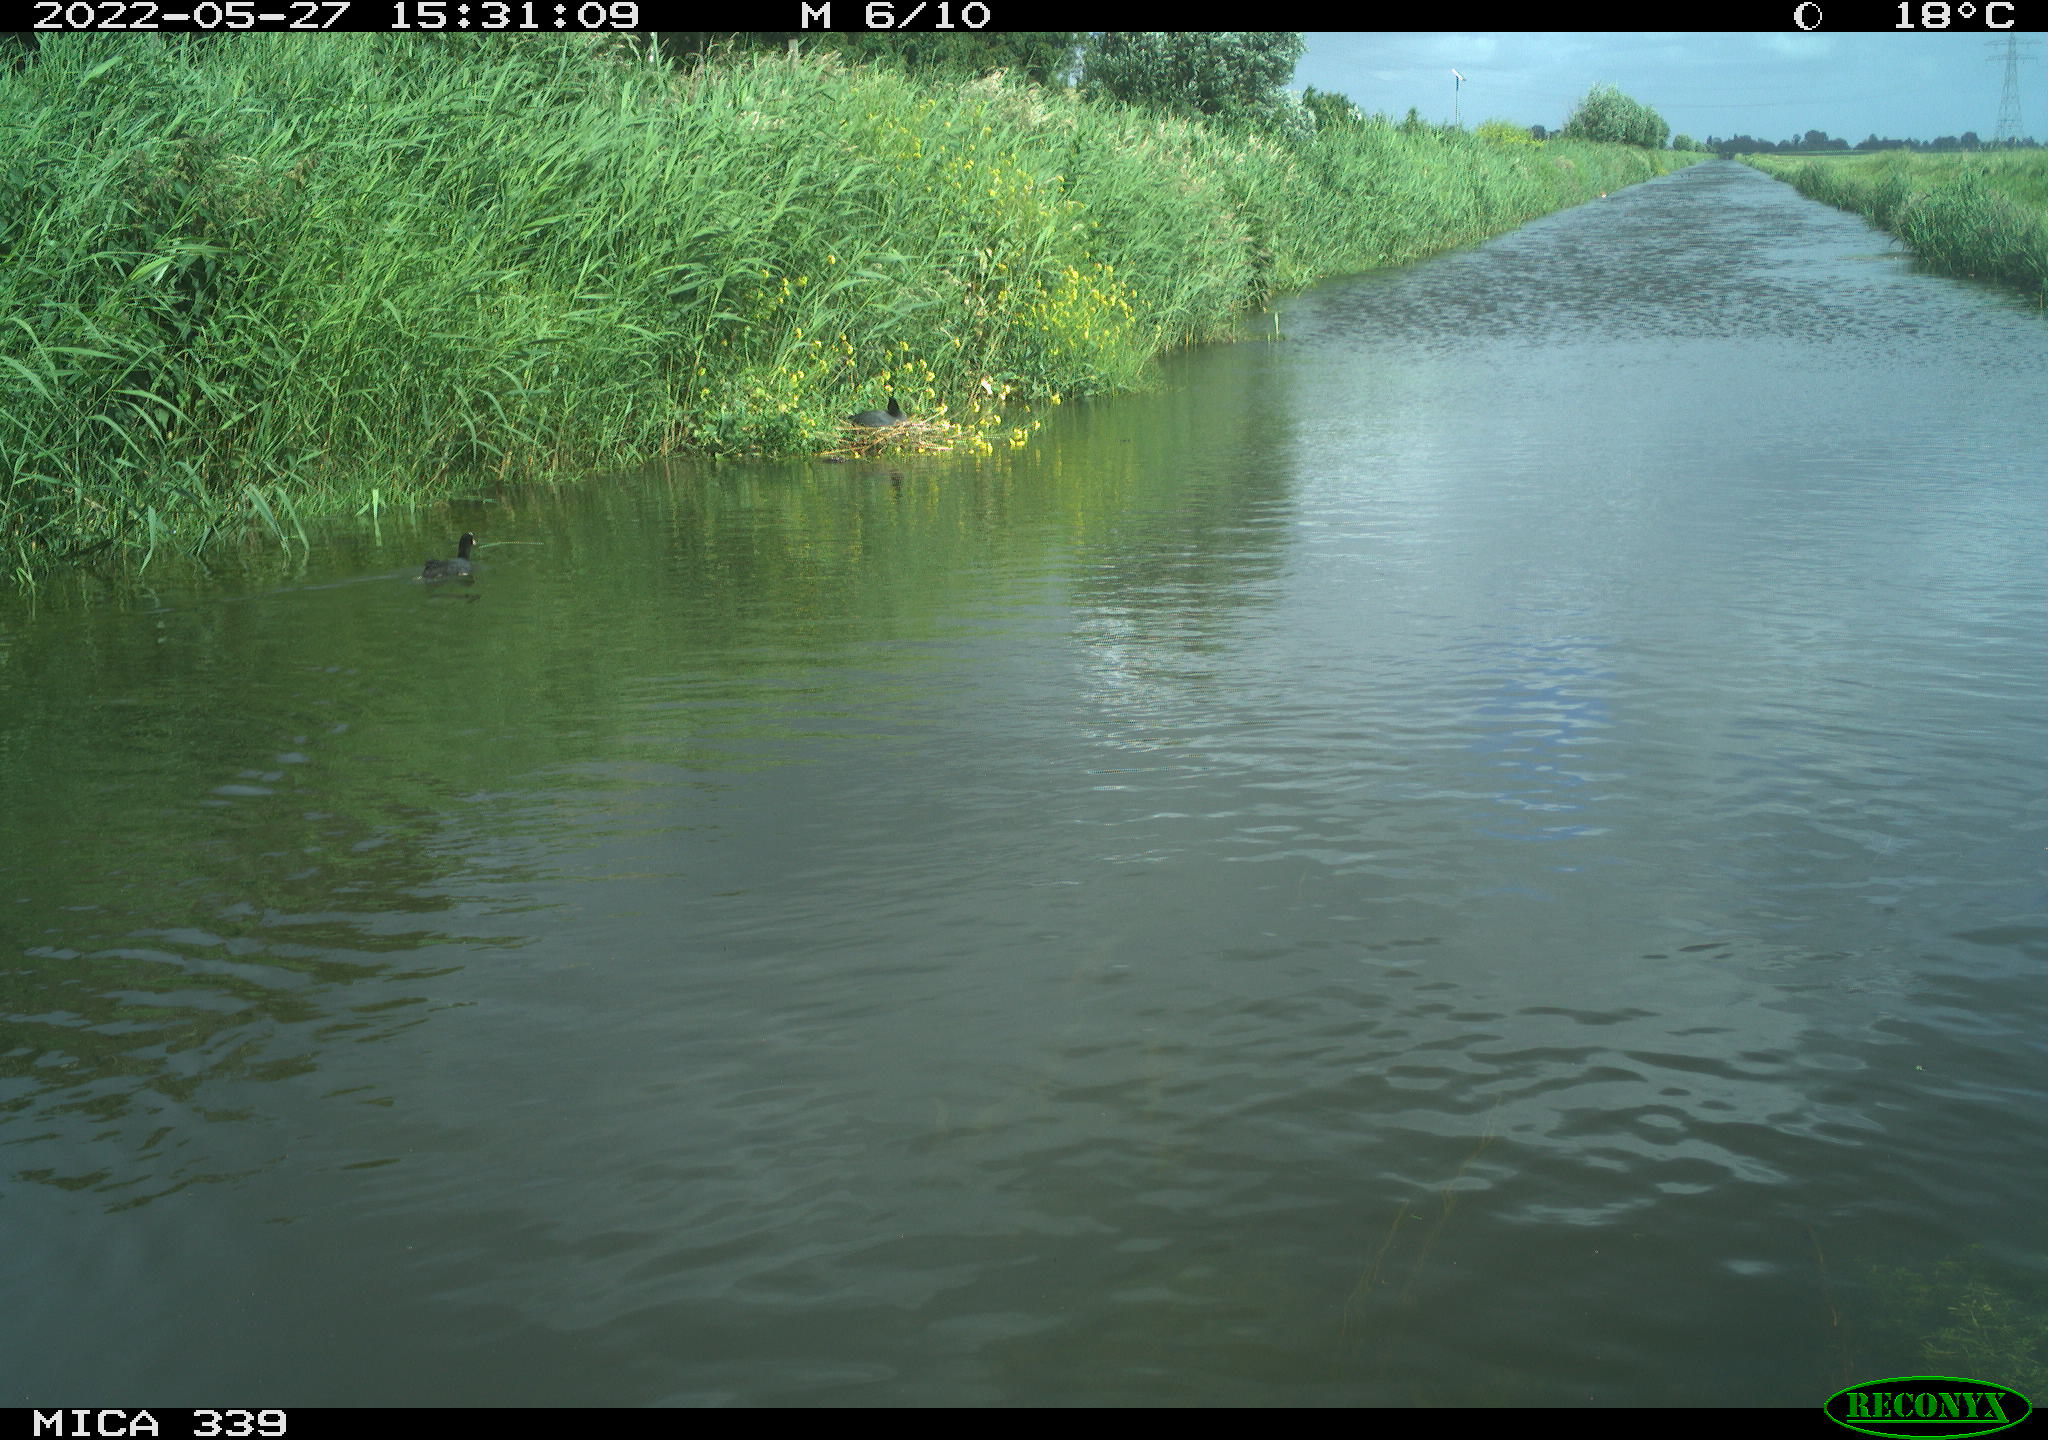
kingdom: Animalia
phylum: Chordata
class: Aves
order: Gruiformes
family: Rallidae
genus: Fulica
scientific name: Fulica atra
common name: Eurasian coot
